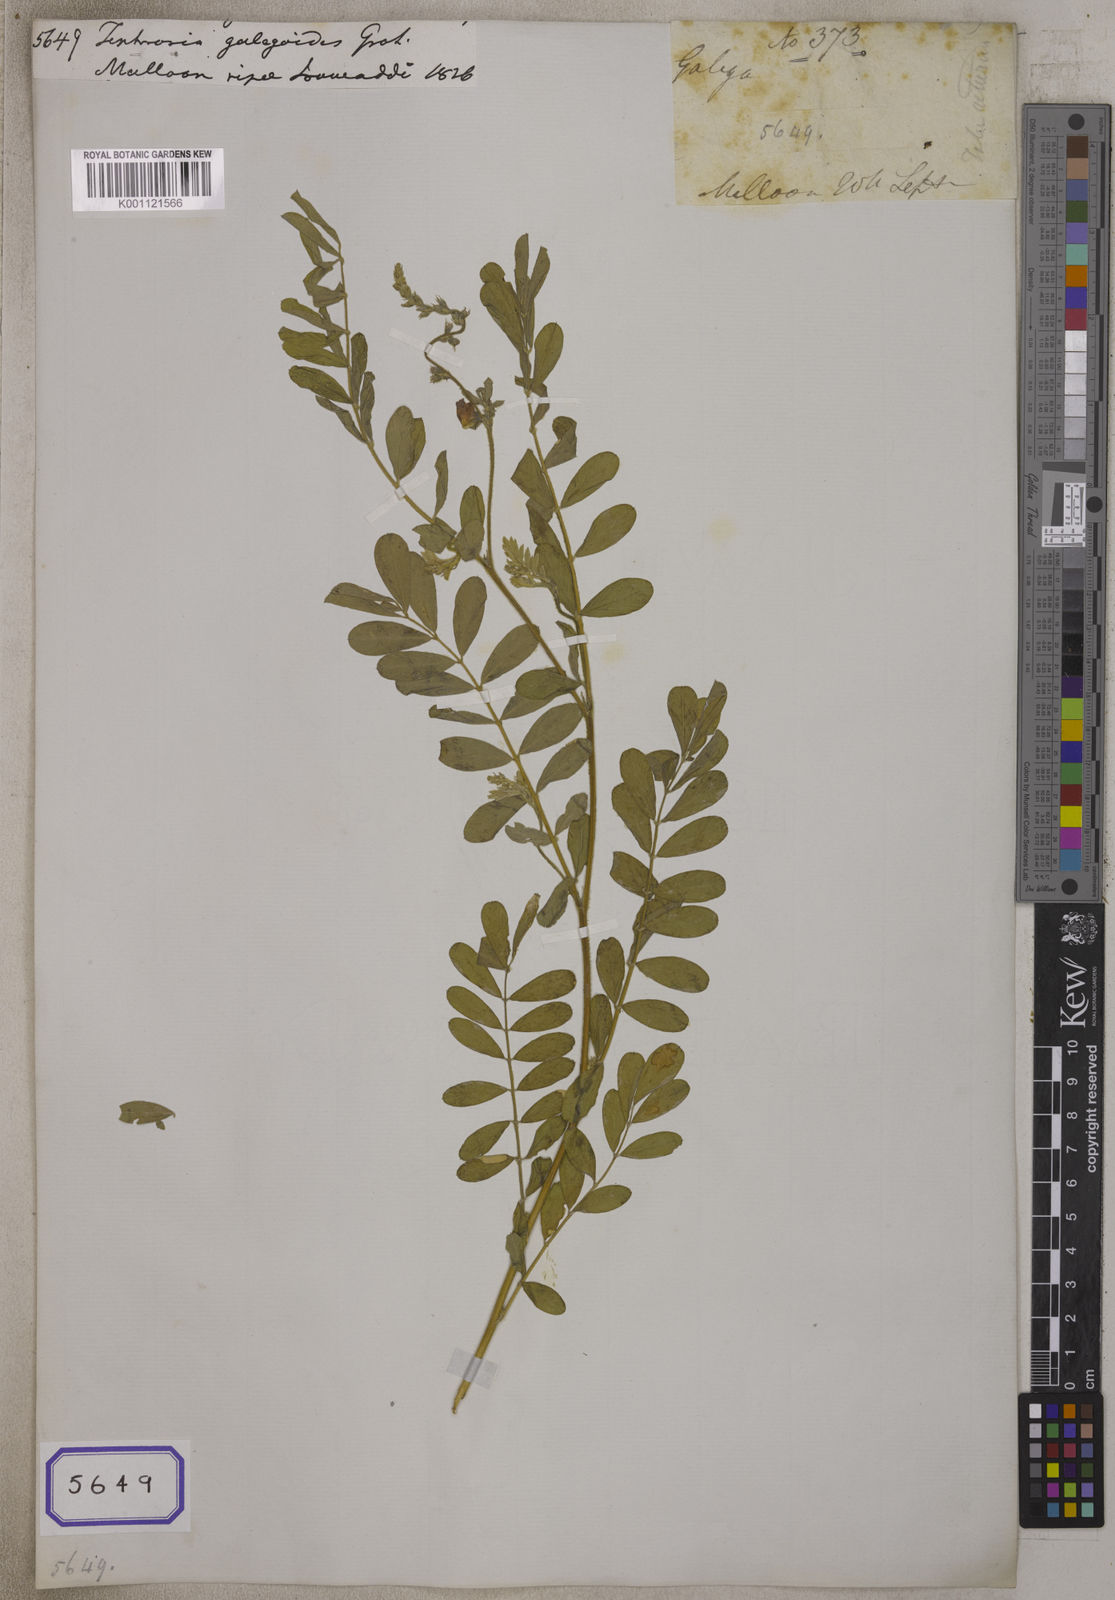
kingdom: Plantae
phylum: Tracheophyta
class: Magnoliopsida
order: Fabales
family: Fabaceae
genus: Tephrosia
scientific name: Tephrosia
